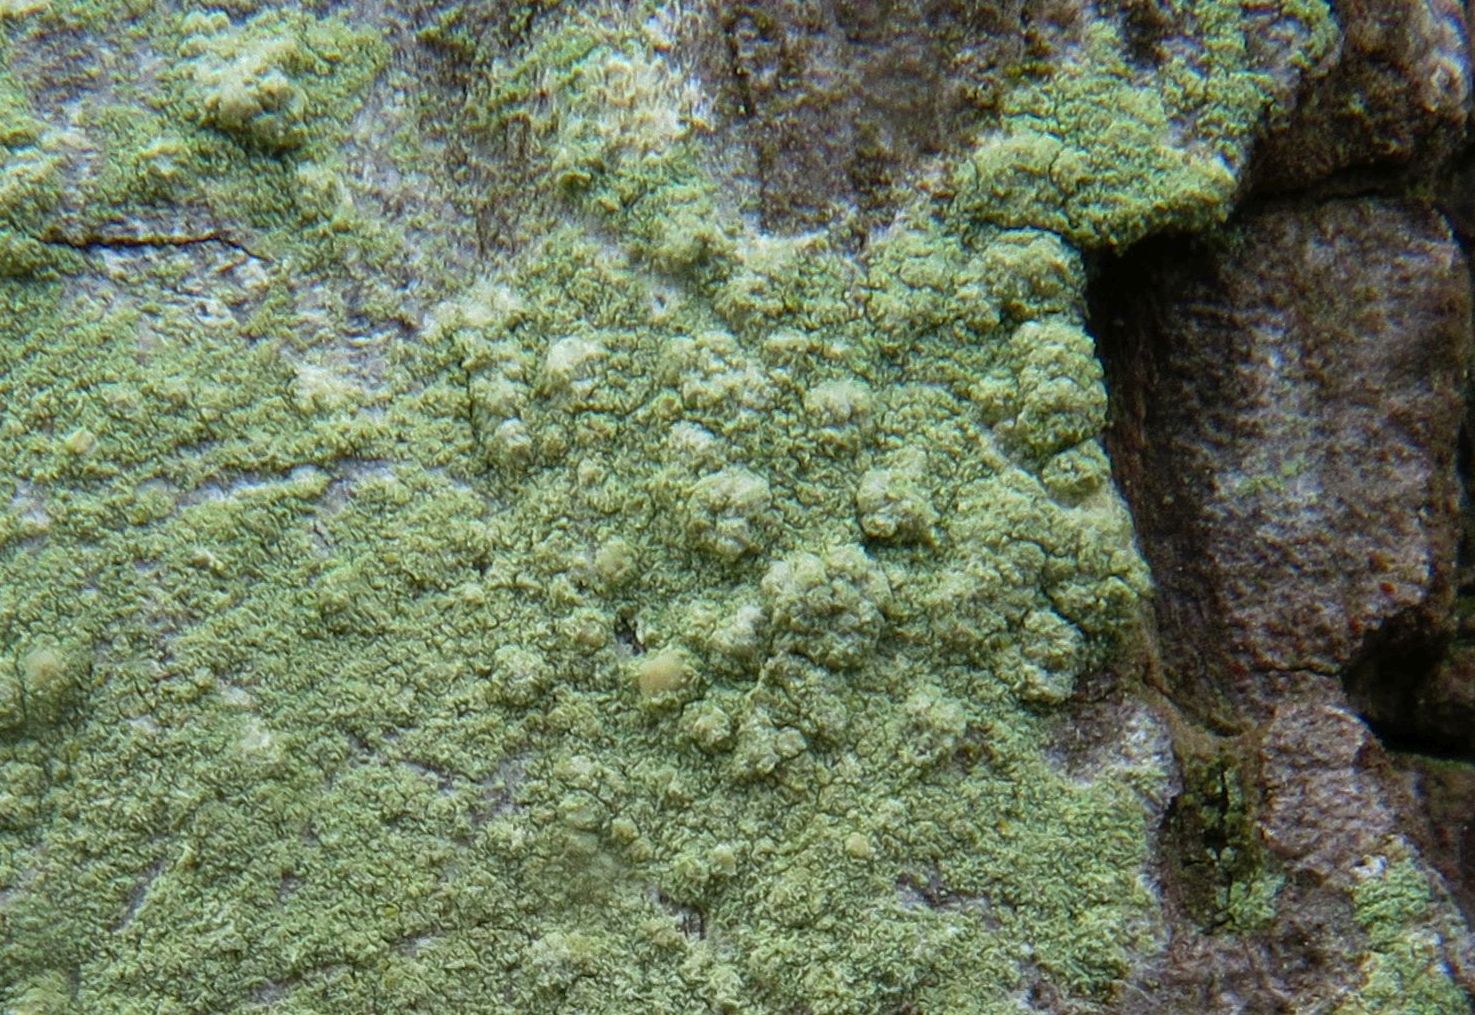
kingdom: Fungi
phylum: Ascomycota
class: Lecanoromycetes
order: Lecanorales
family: Stereocaulaceae
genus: Lepraria
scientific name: Lepraria incana
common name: almindelig støvlav
